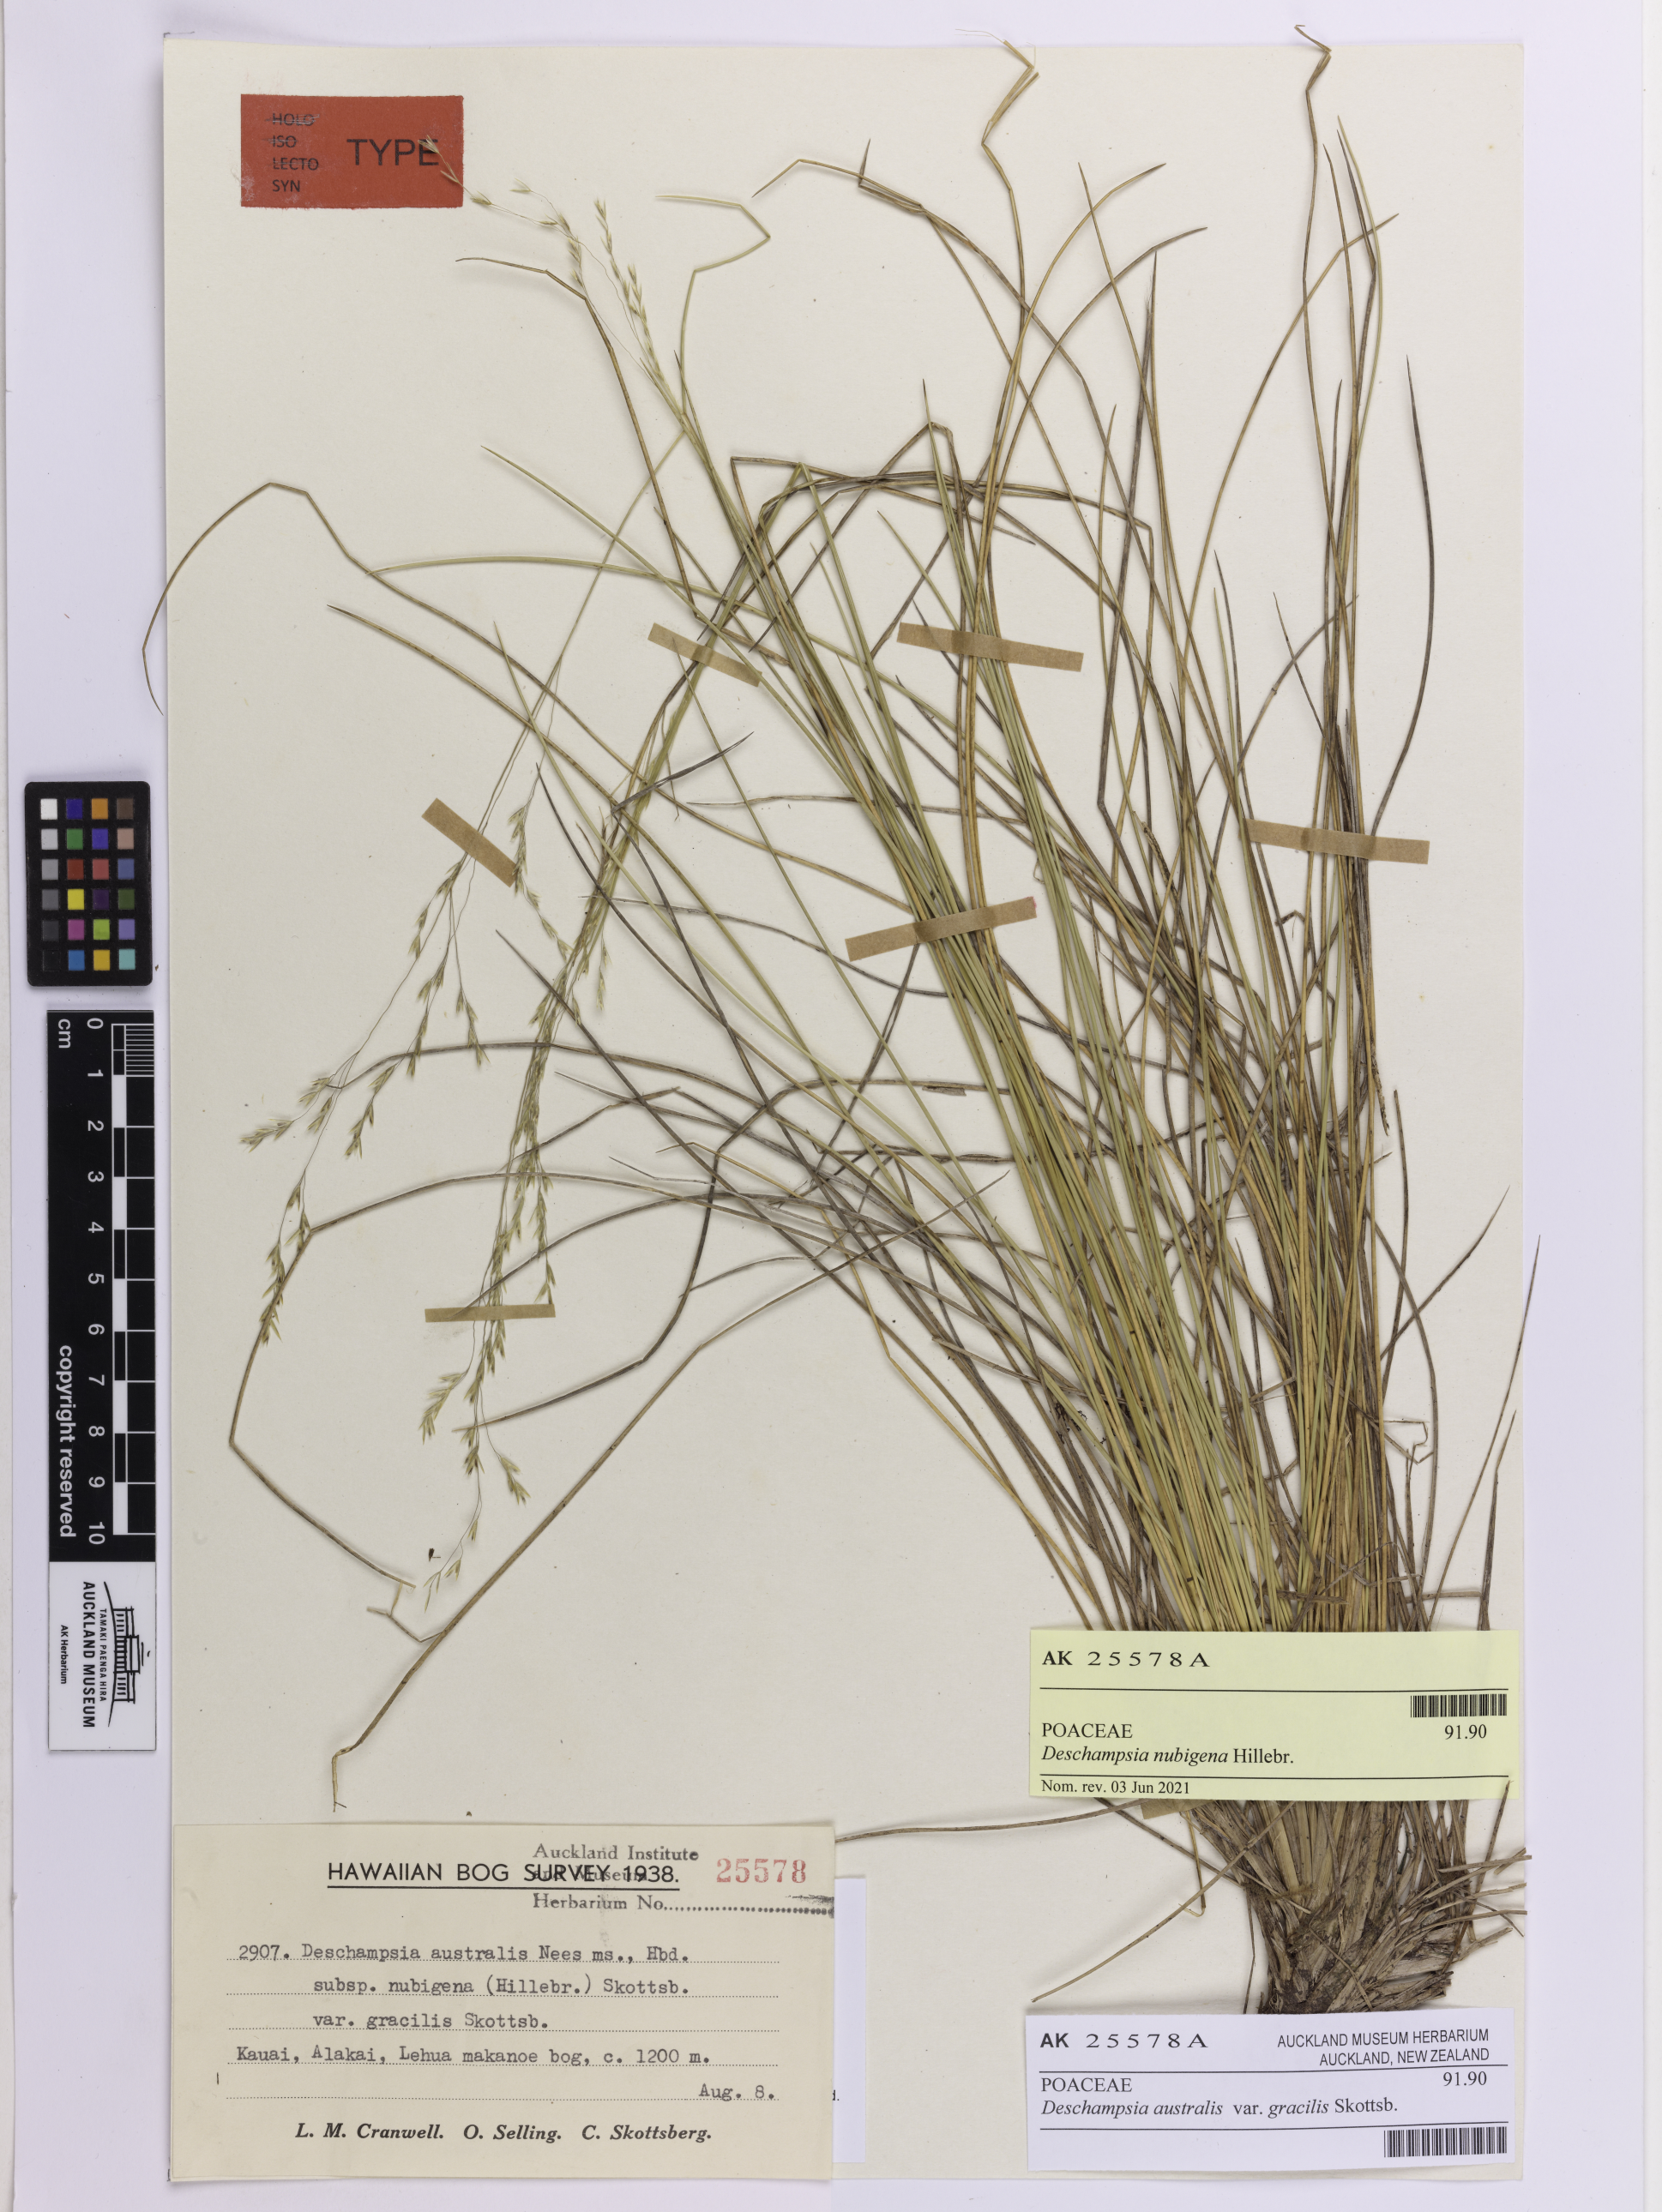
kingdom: Plantae
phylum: Tracheophyta
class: Liliopsida
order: Poales
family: Poaceae
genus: Deschampsia
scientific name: Deschampsia nubigena
